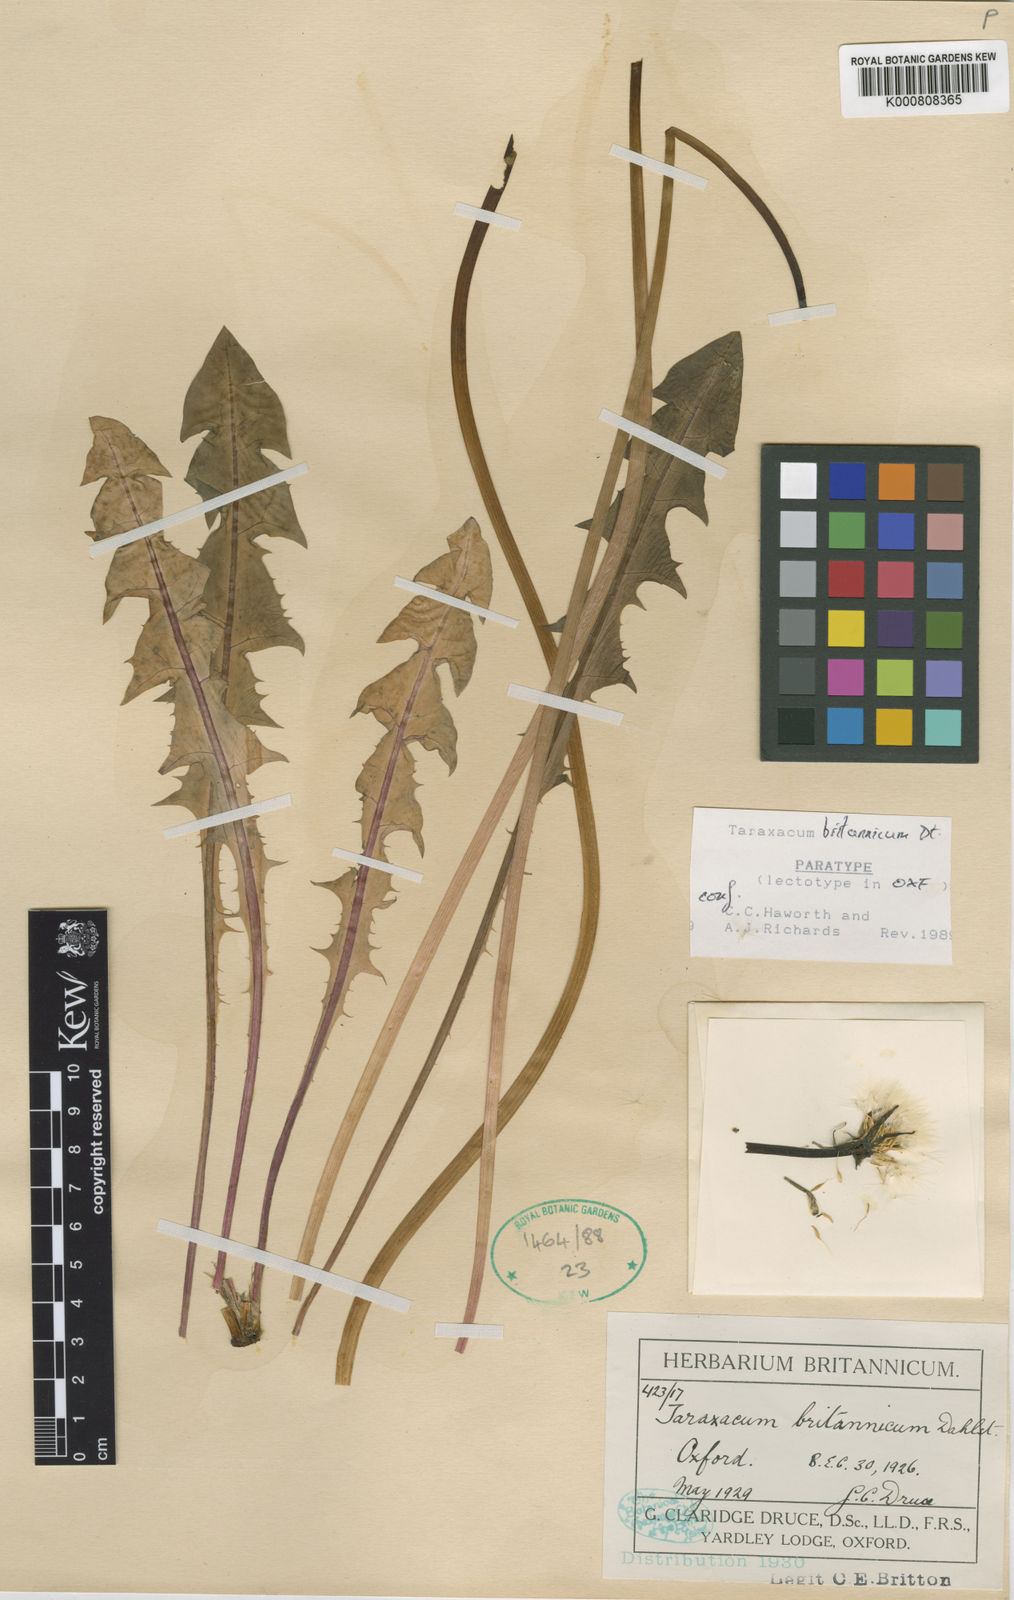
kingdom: Plantae
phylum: Tracheophyta
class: Magnoliopsida
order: Asterales
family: Asteraceae
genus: Taraxacum
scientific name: Taraxacum britannicum
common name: British dandelion
